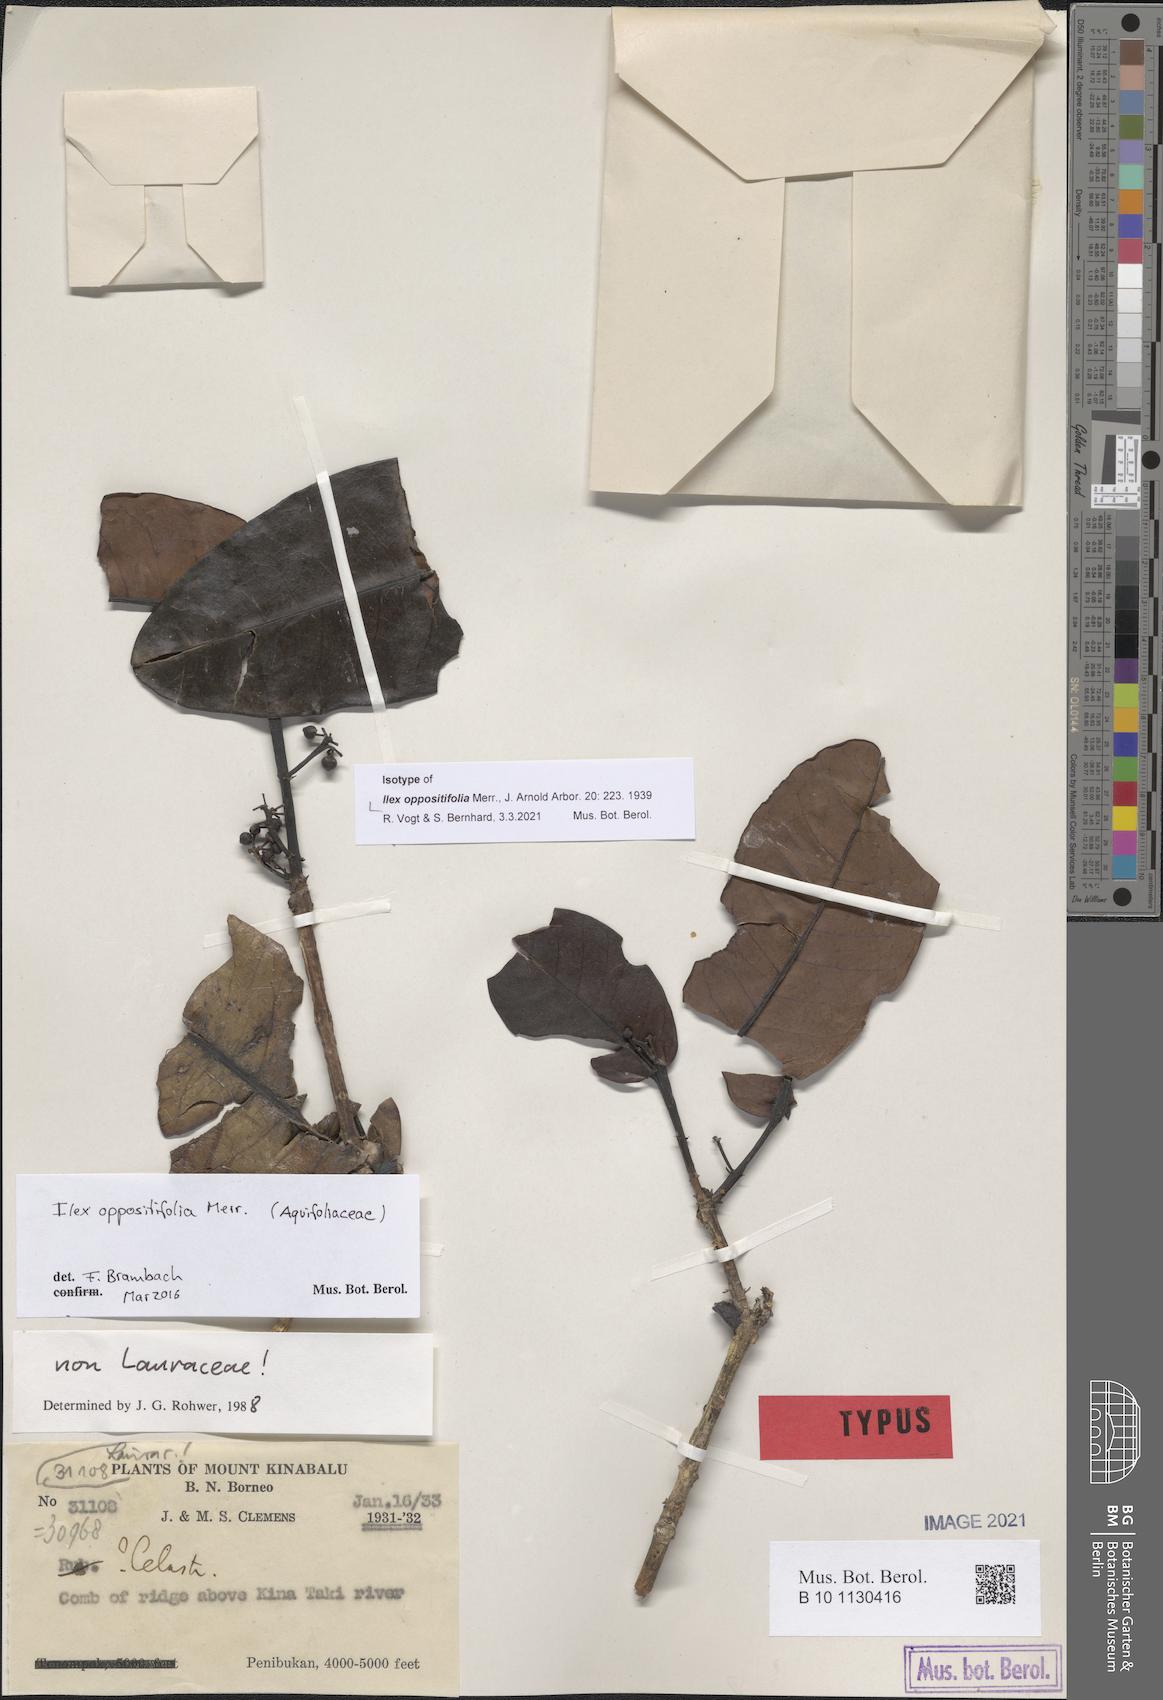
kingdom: Plantae
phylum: Tracheophyta
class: Magnoliopsida
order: Aquifoliales
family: Aquifoliaceae
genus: Ilex
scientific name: Ilex oppositifolia
